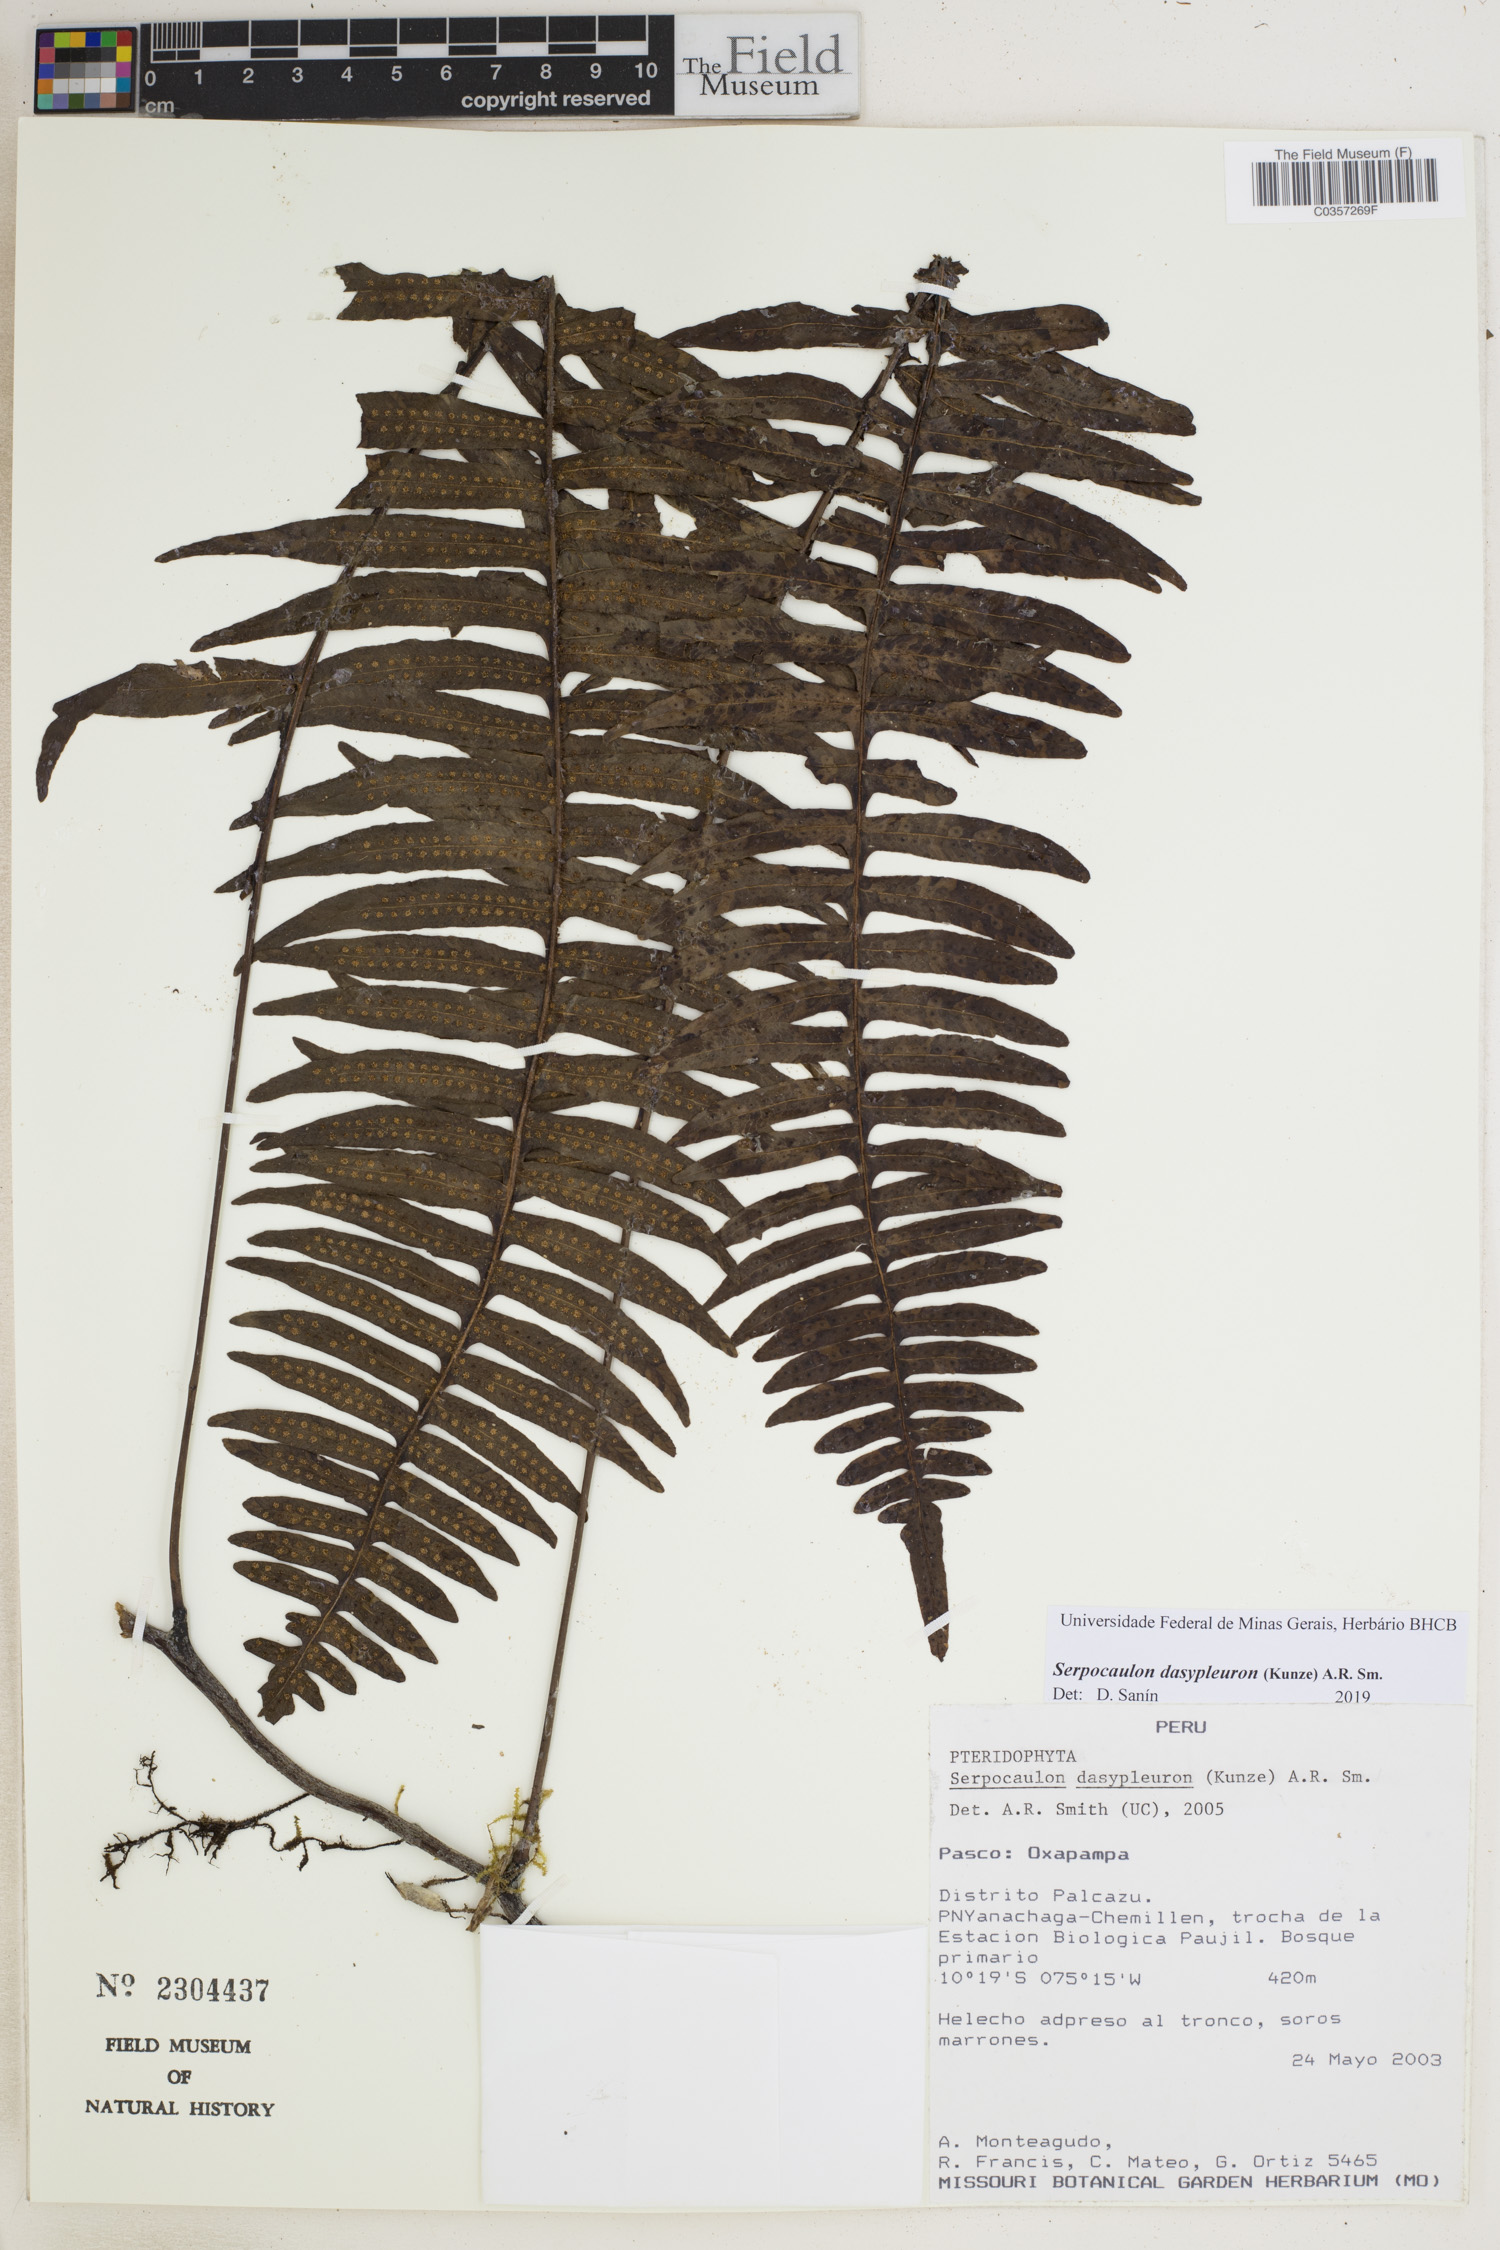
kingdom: Plantae
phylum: Tracheophyta
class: Polypodiopsida
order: Polypodiales
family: Polypodiaceae
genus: Serpocaulon
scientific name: Serpocaulon dasypleuron
